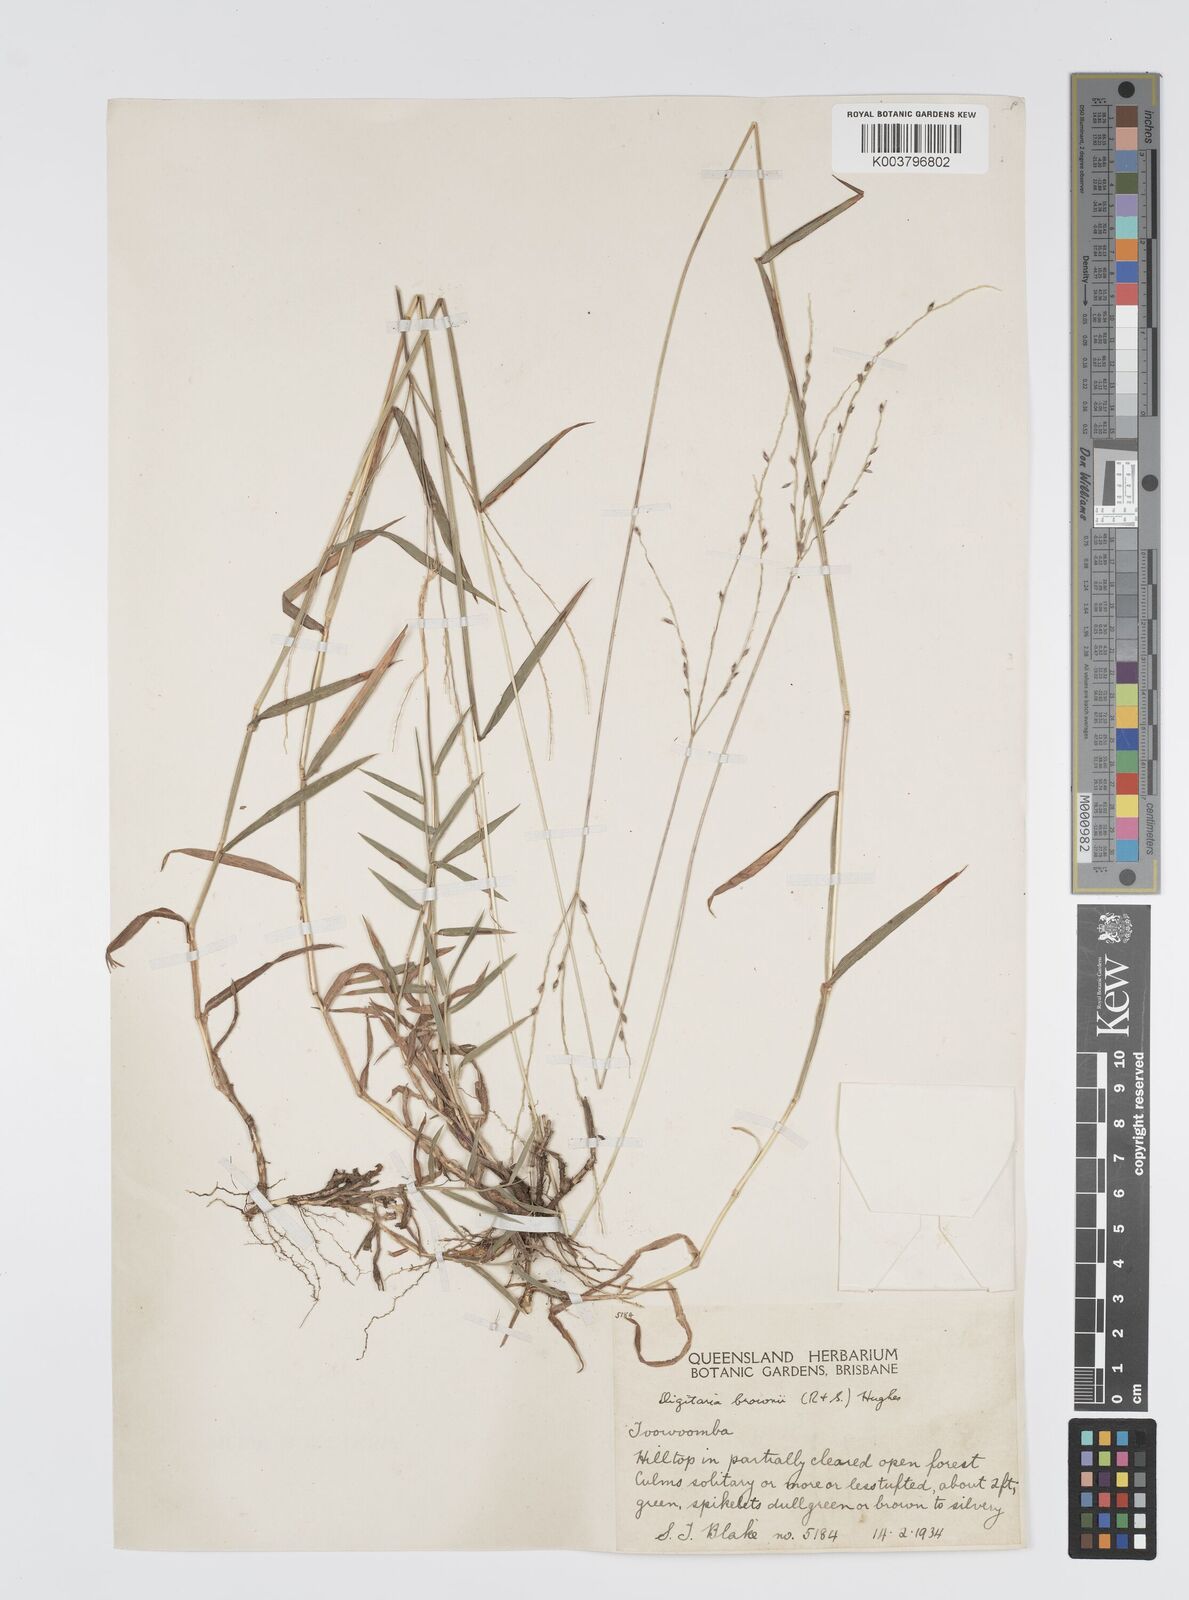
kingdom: Plantae
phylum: Tracheophyta
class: Liliopsida
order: Poales
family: Poaceae
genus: Digitaria
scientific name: Digitaria brownii
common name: Cotton grass
